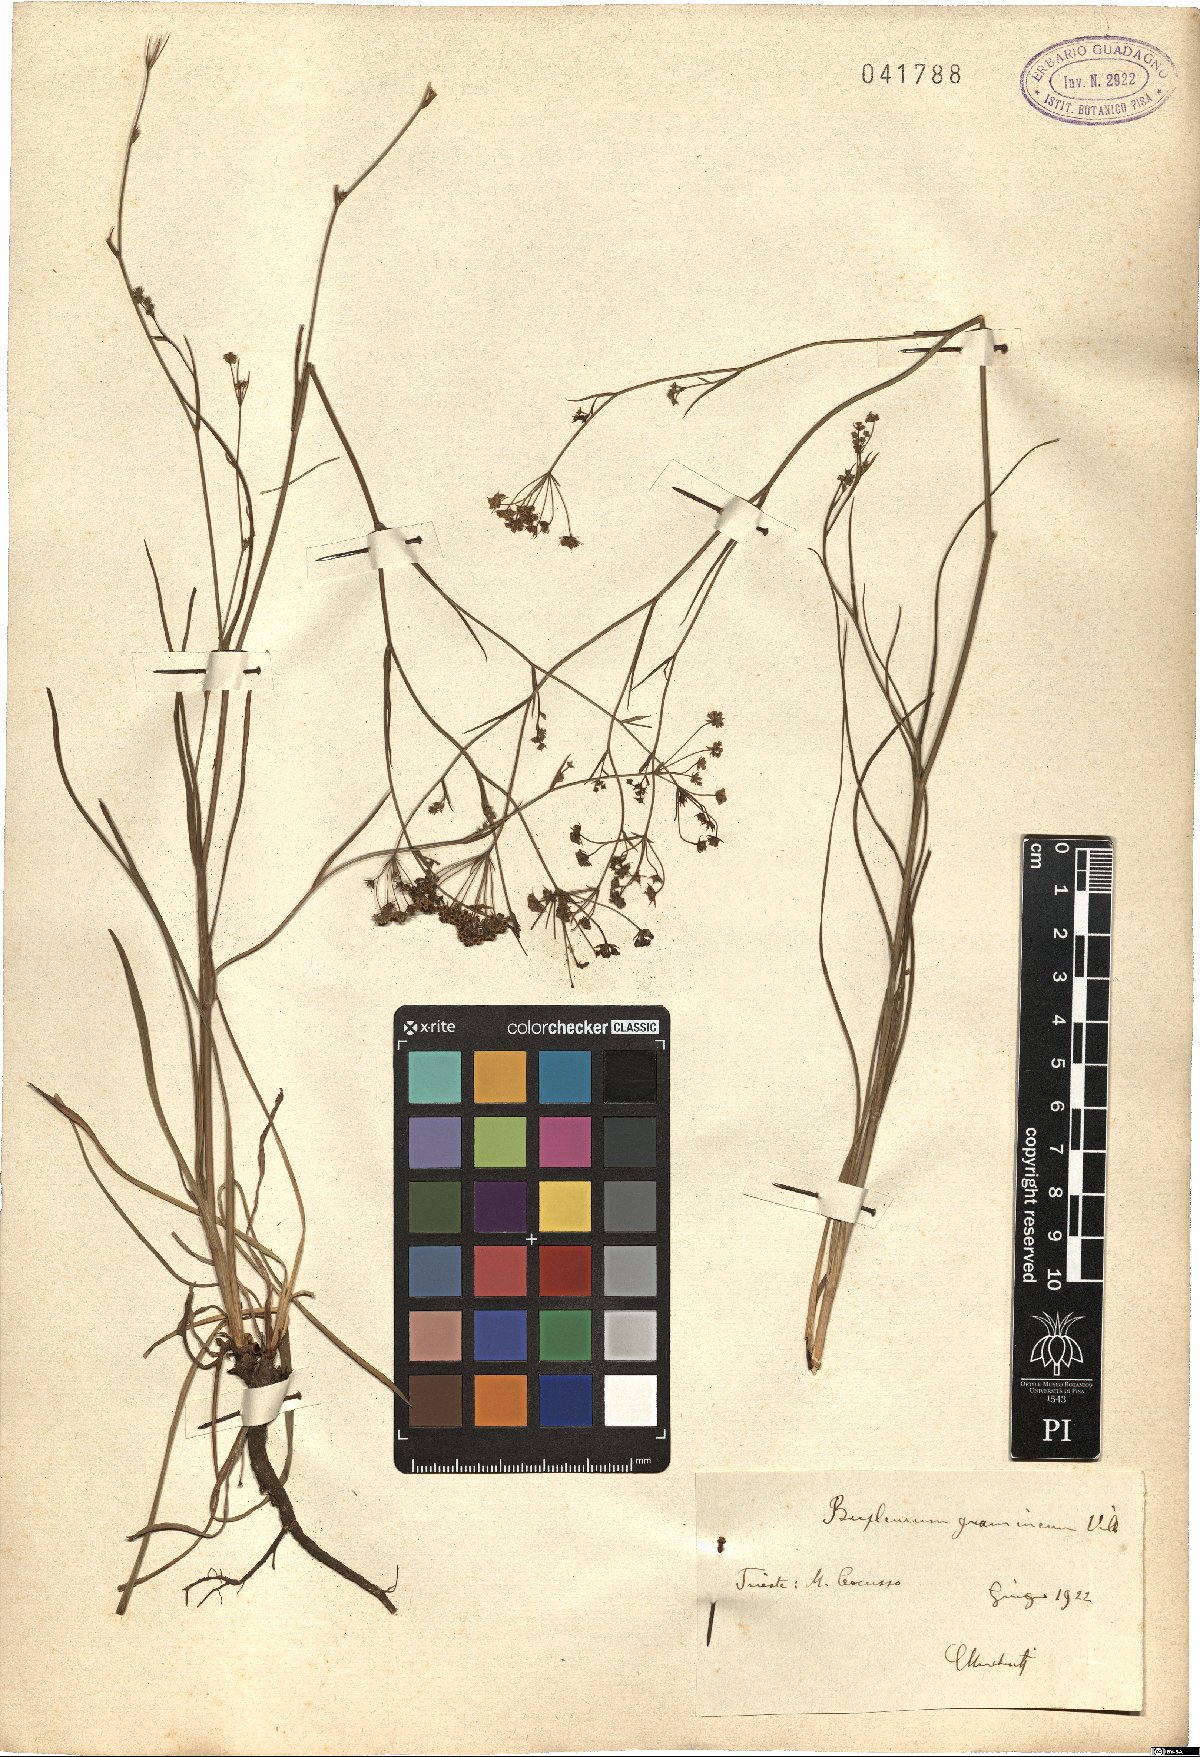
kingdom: Plantae
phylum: Tracheophyta
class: Magnoliopsida
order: Apiales
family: Apiaceae
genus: Bupleurum
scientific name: Bupleurum ranunculoides
